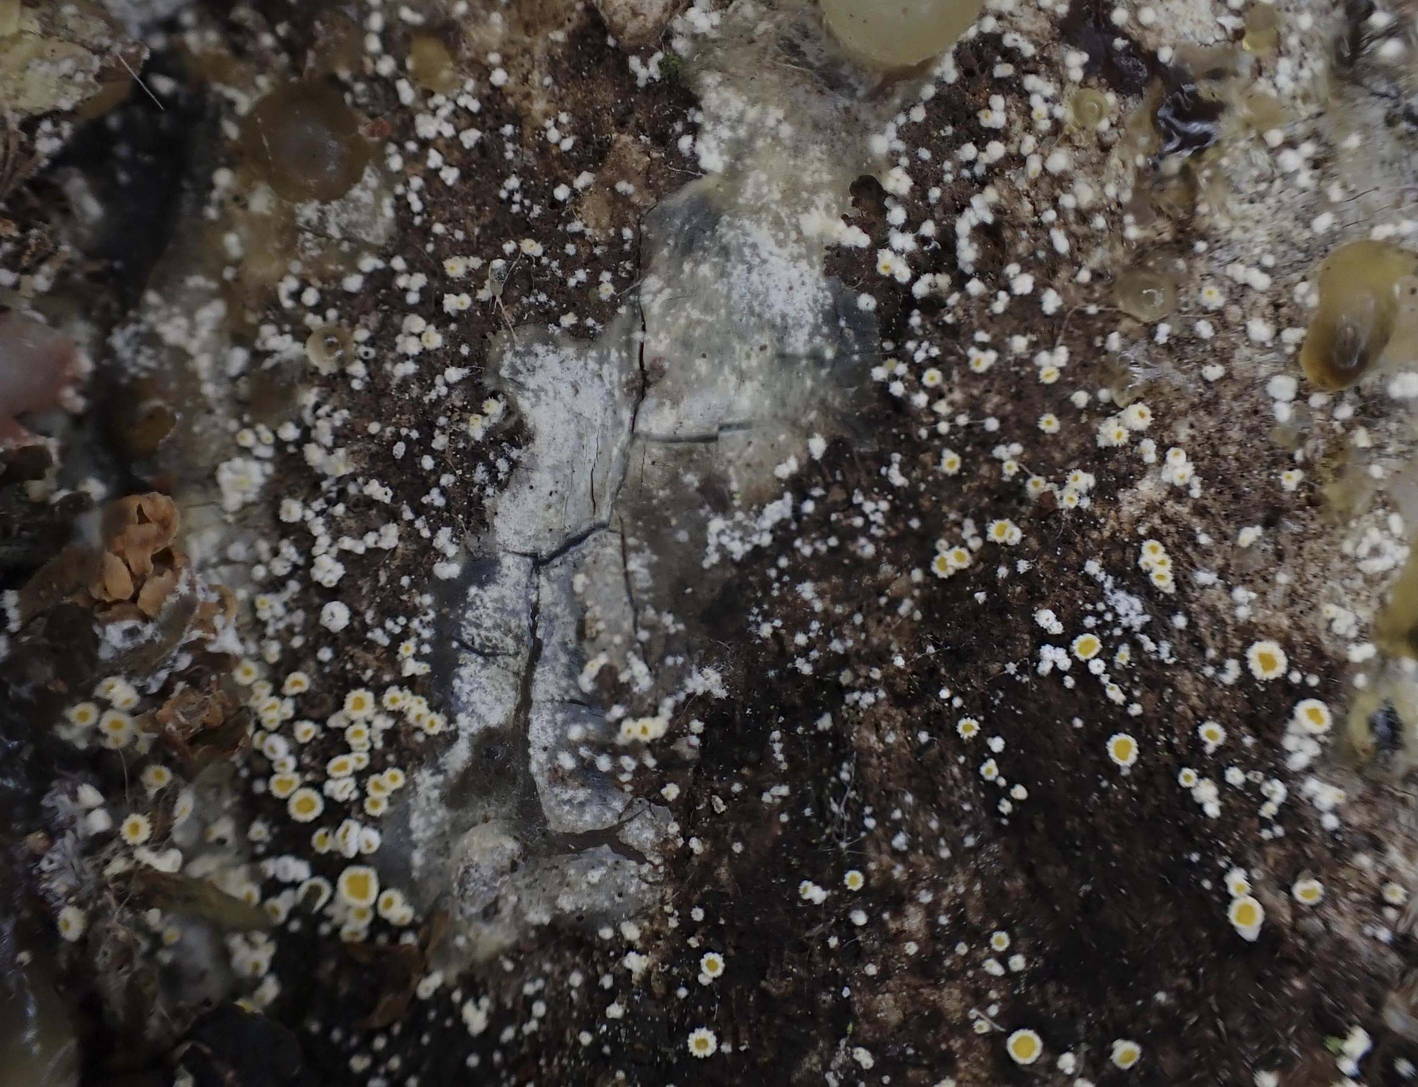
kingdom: Fungi
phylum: Ascomycota
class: Leotiomycetes
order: Helotiales
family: Lachnaceae
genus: Lachnellula
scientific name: Lachnellula calycina
